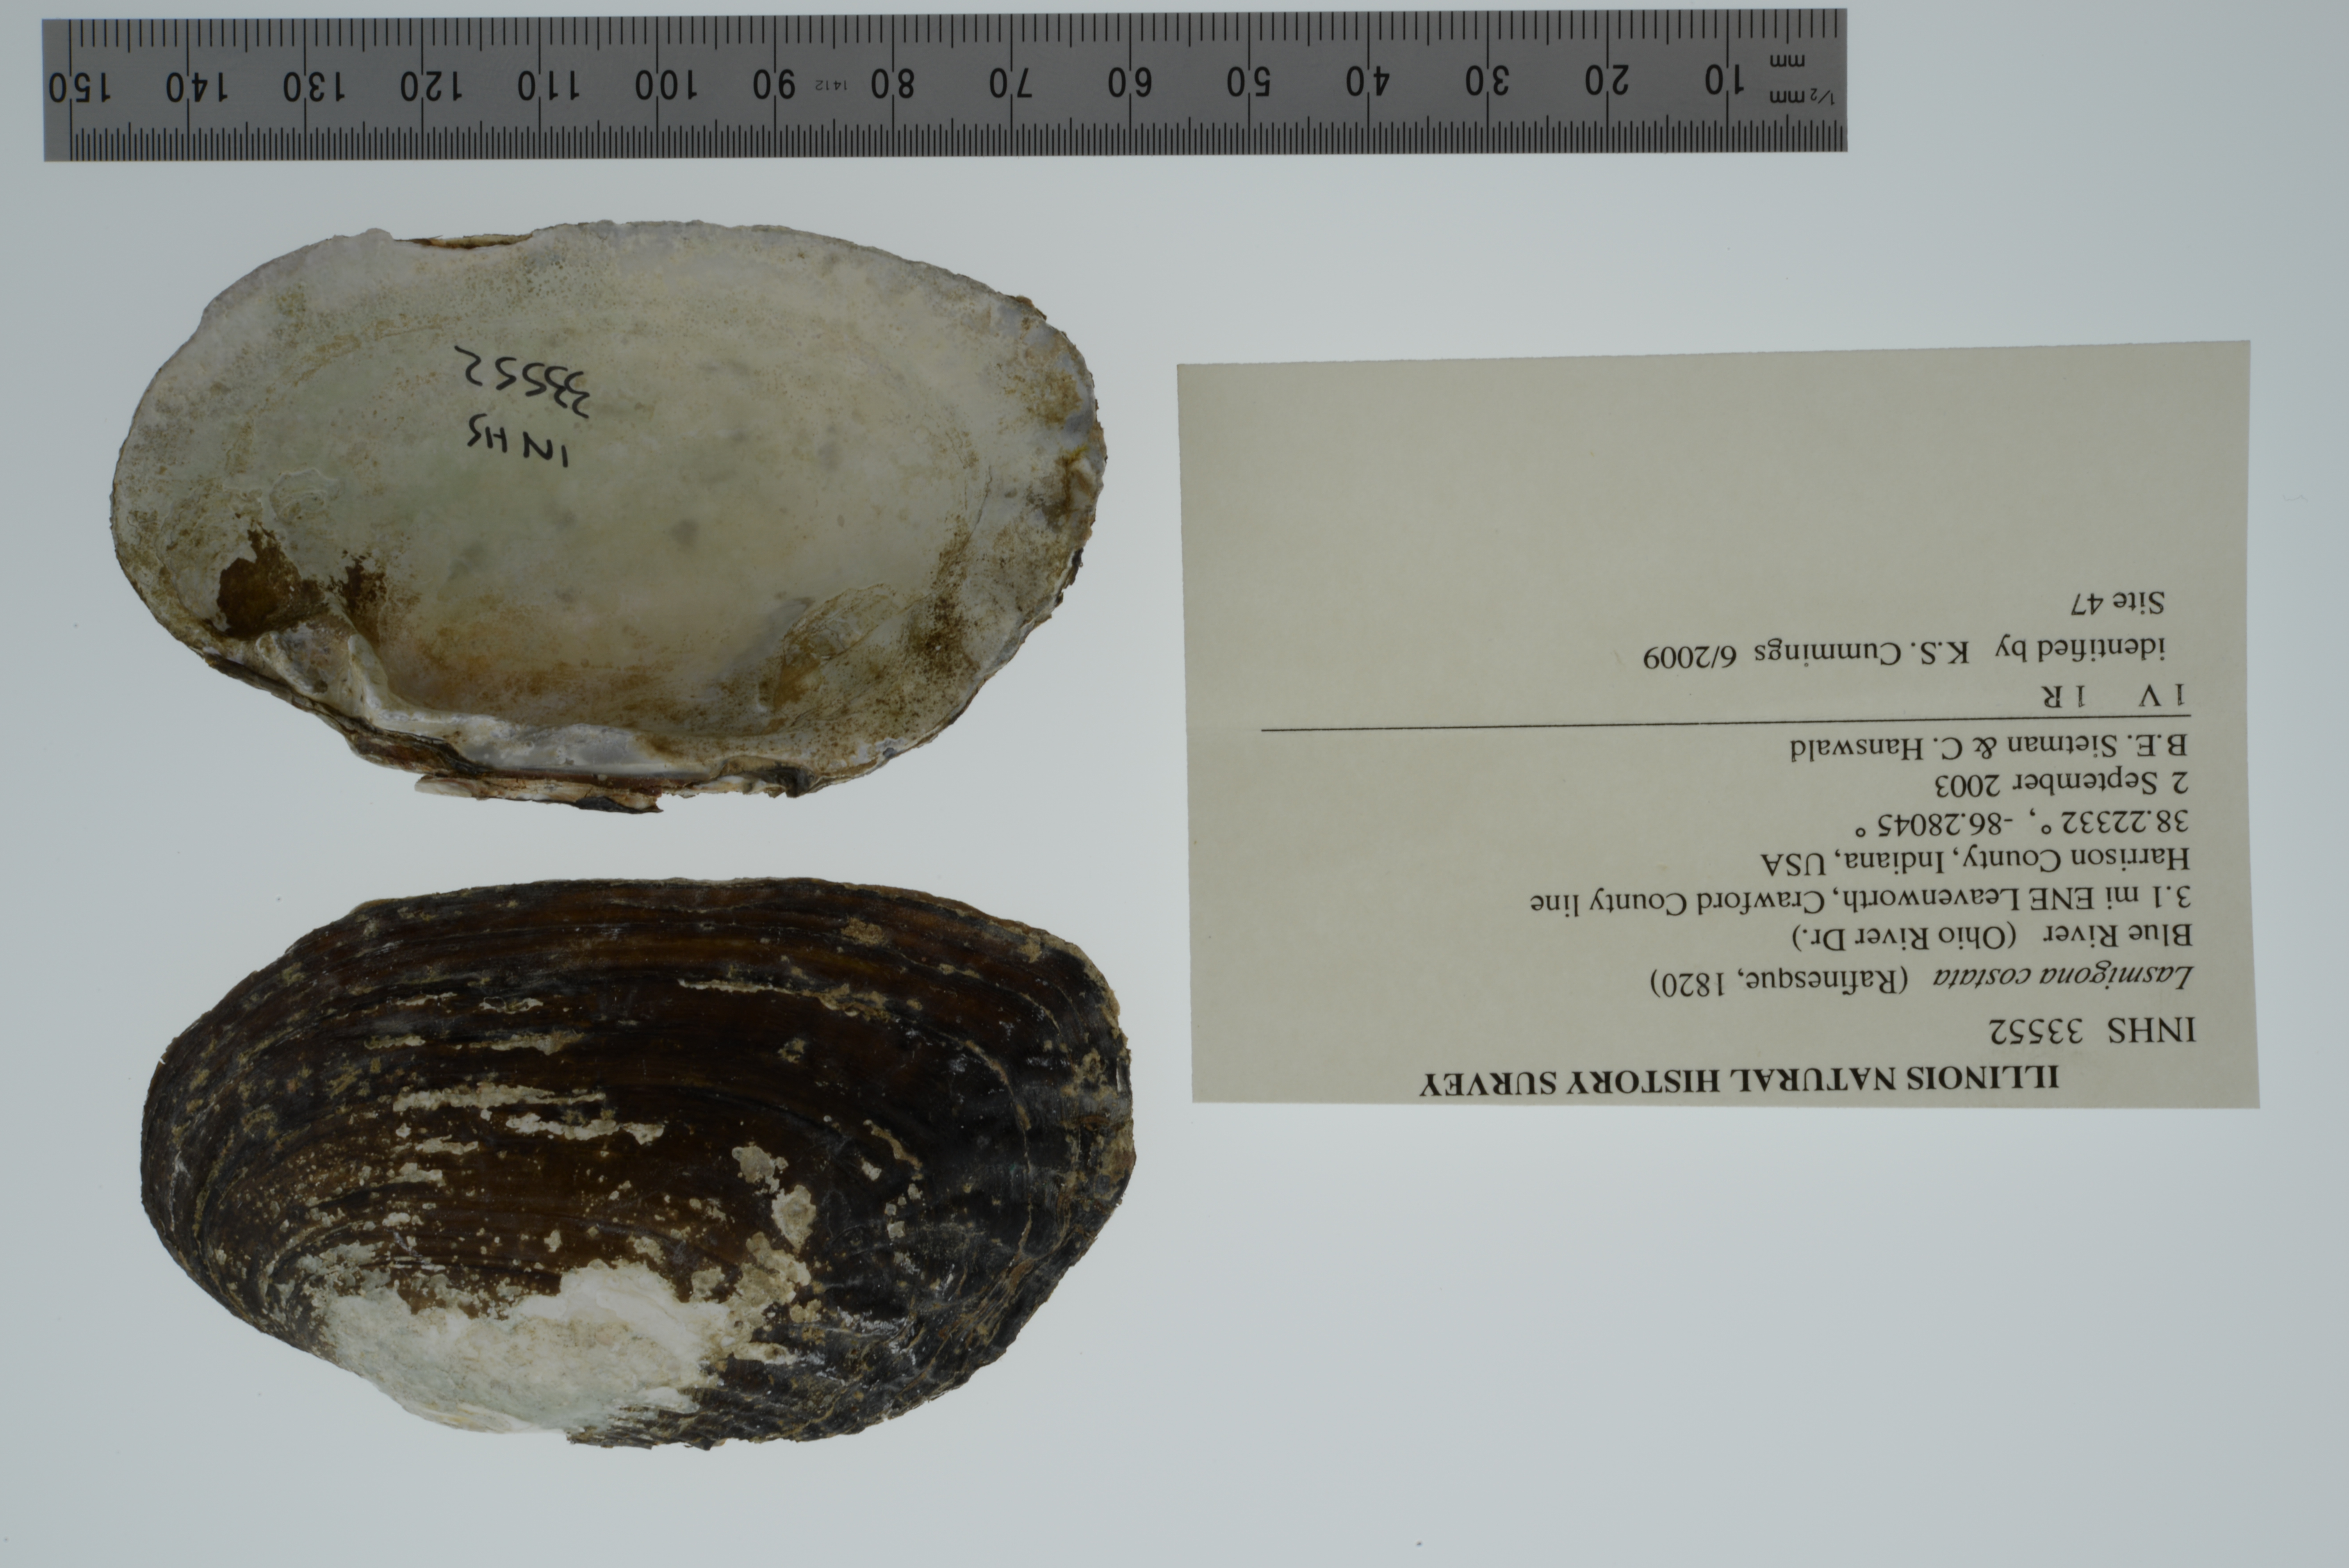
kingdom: Animalia
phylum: Mollusca
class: Bivalvia
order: Unionida
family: Unionidae
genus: Lasmigona
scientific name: Lasmigona costata
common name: Flutedshell
